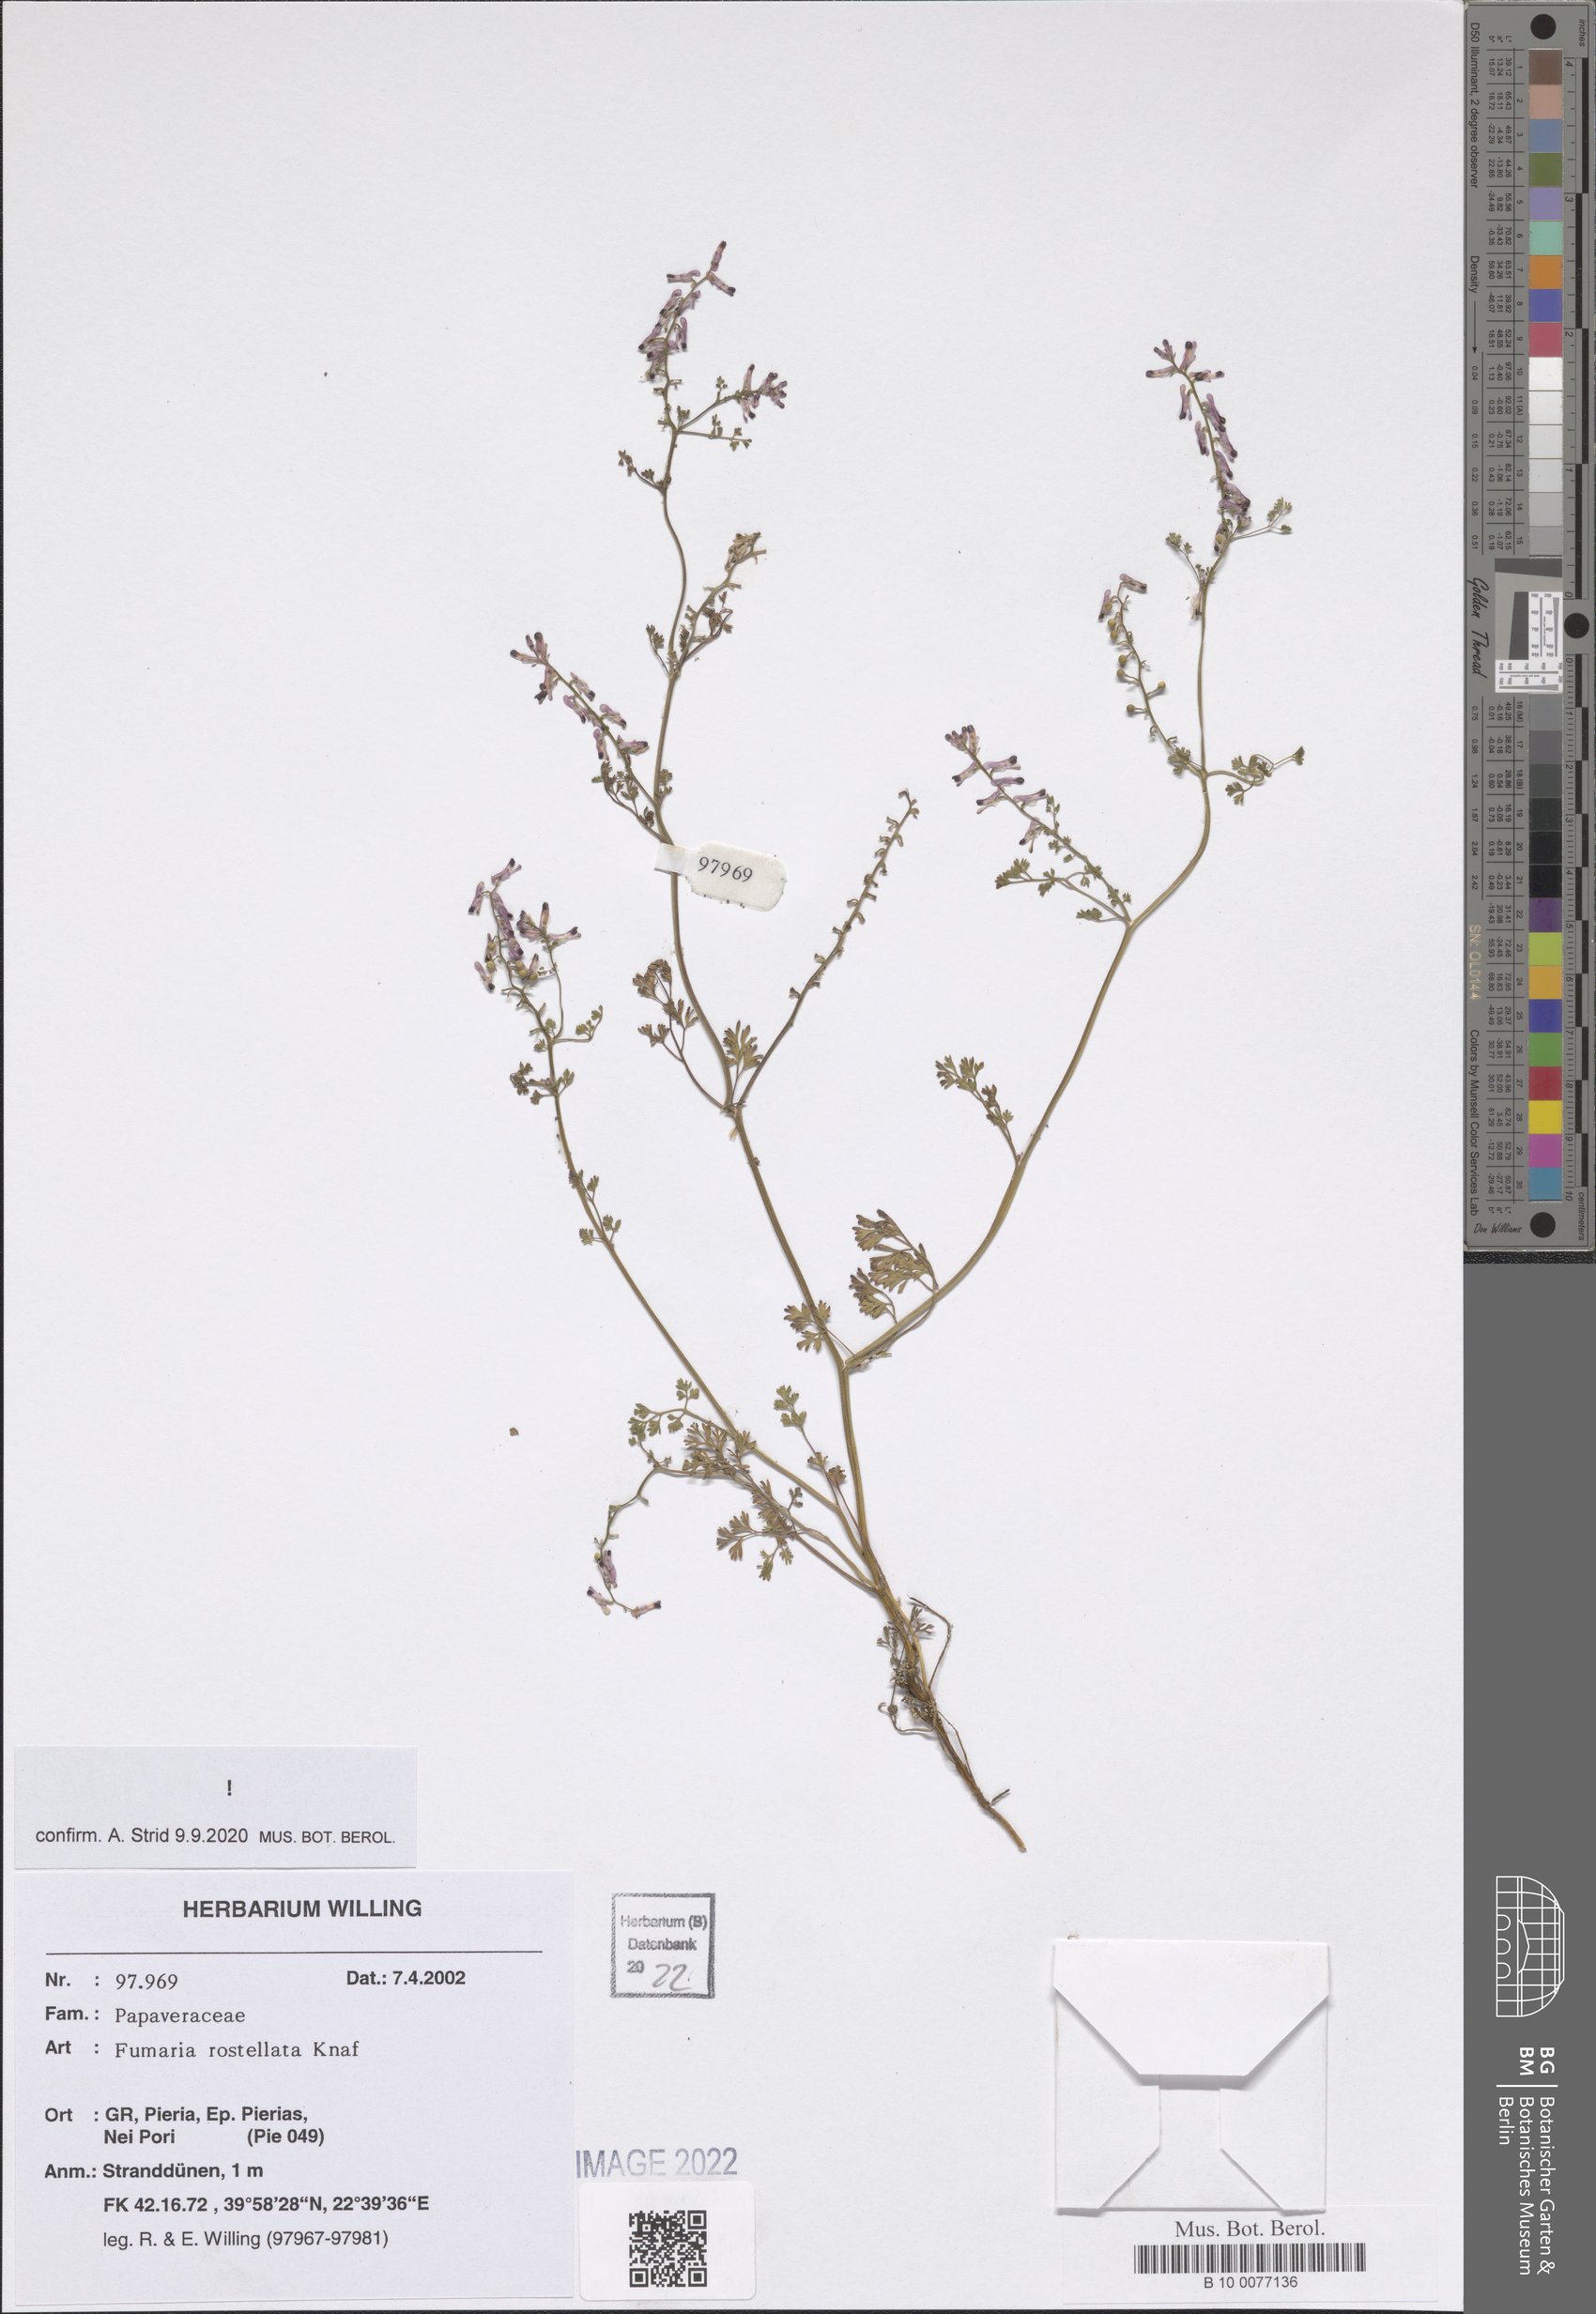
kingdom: Plantae
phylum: Tracheophyta
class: Magnoliopsida
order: Ranunculales
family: Papaveraceae
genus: Fumaria
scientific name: Fumaria rostellata
